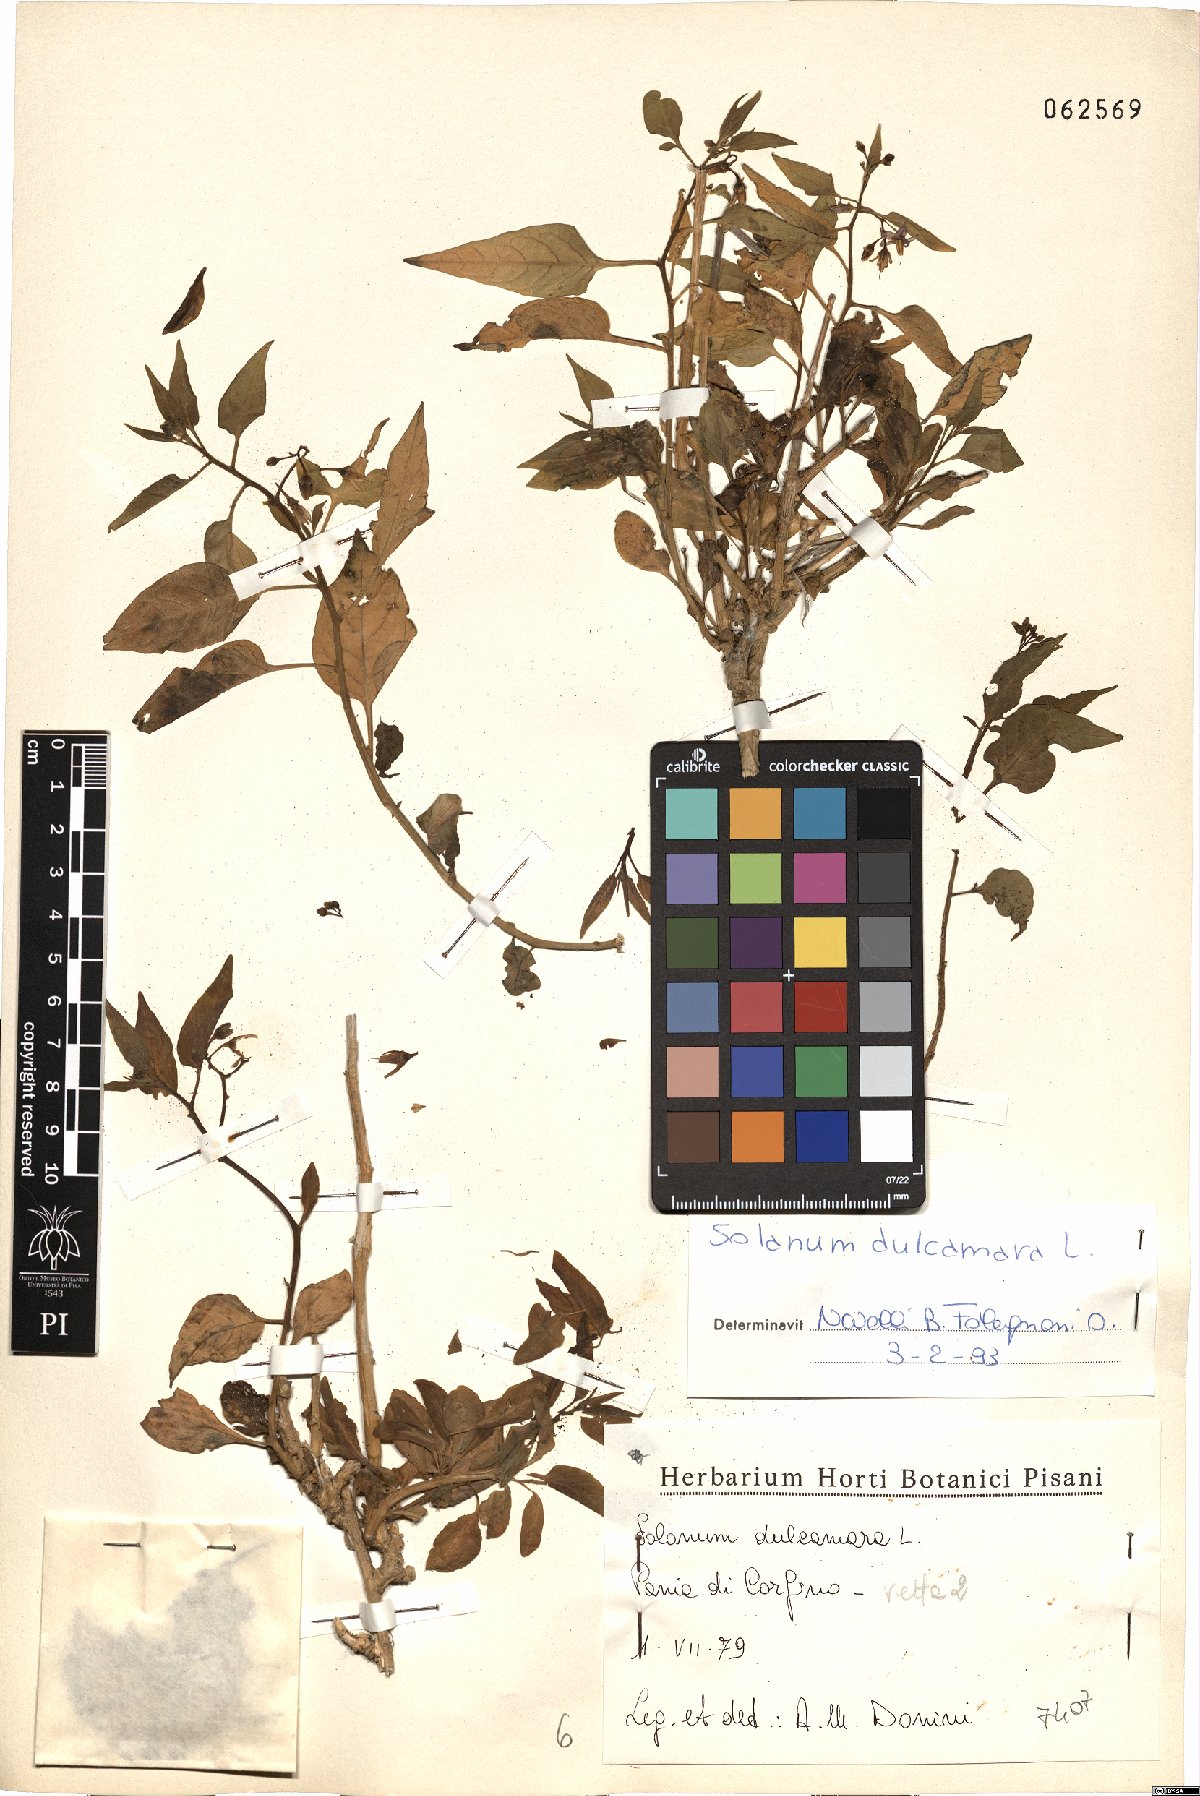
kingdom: Plantae
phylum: Tracheophyta
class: Magnoliopsida
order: Solanales
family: Solanaceae
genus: Solanum
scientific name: Solanum dulcamara
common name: Climbing nightshade
